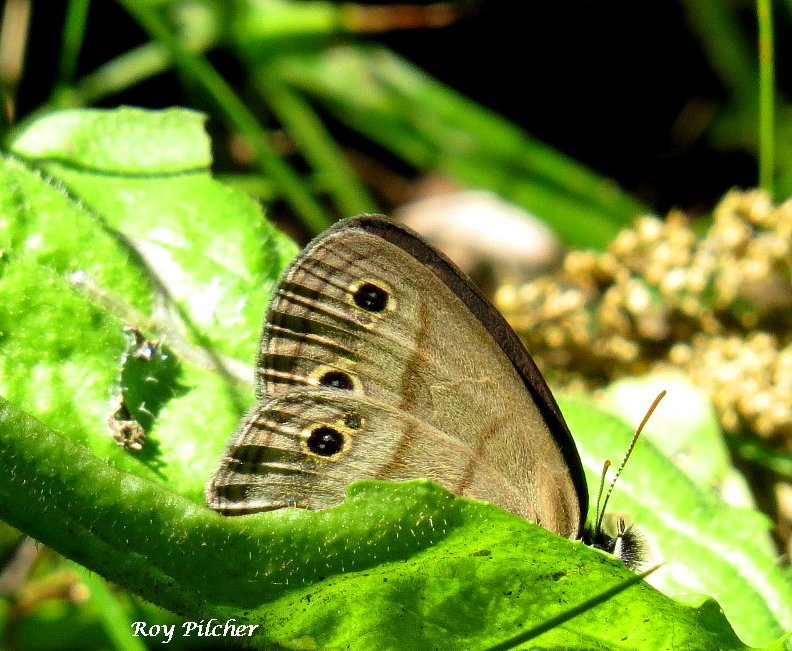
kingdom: Animalia
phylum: Arthropoda
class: Insecta
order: Lepidoptera
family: Nymphalidae
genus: Euptychia
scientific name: Euptychia cymela
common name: Little Wood Satyr
